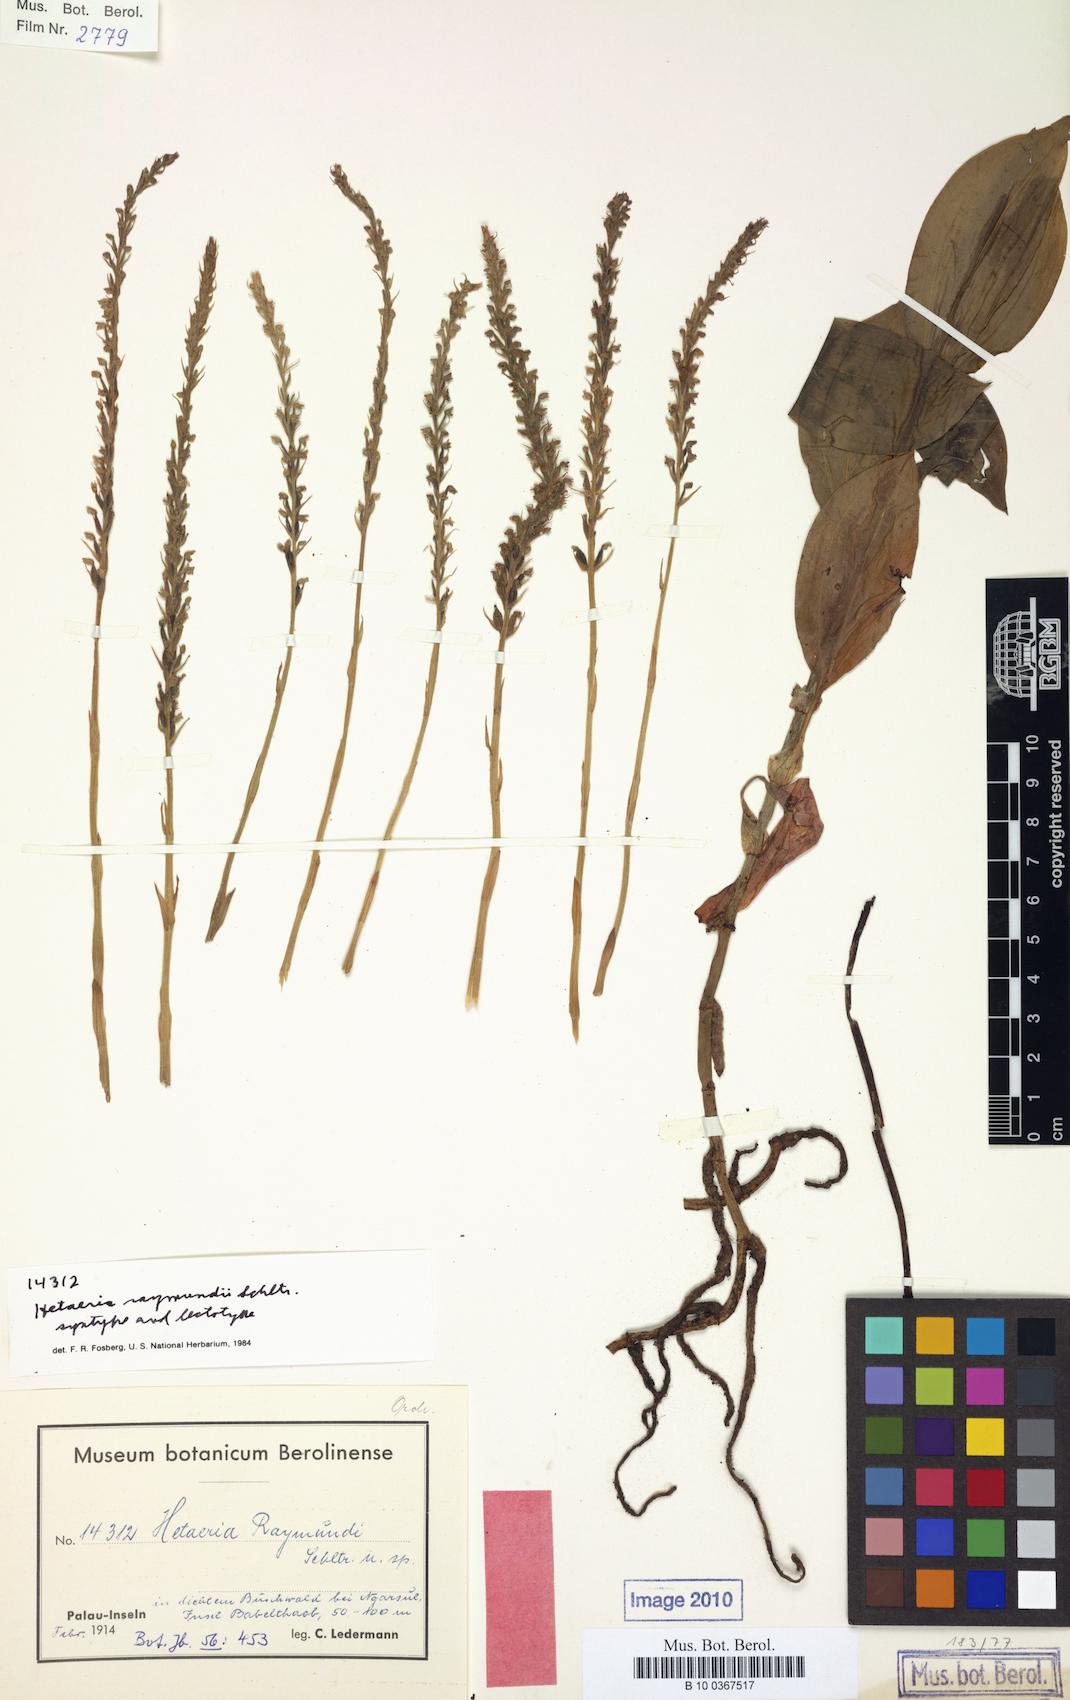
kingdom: Plantae
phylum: Tracheophyta
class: Liliopsida
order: Asparagales
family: Orchidaceae
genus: Hetaeria
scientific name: Hetaeria oblongifolia
